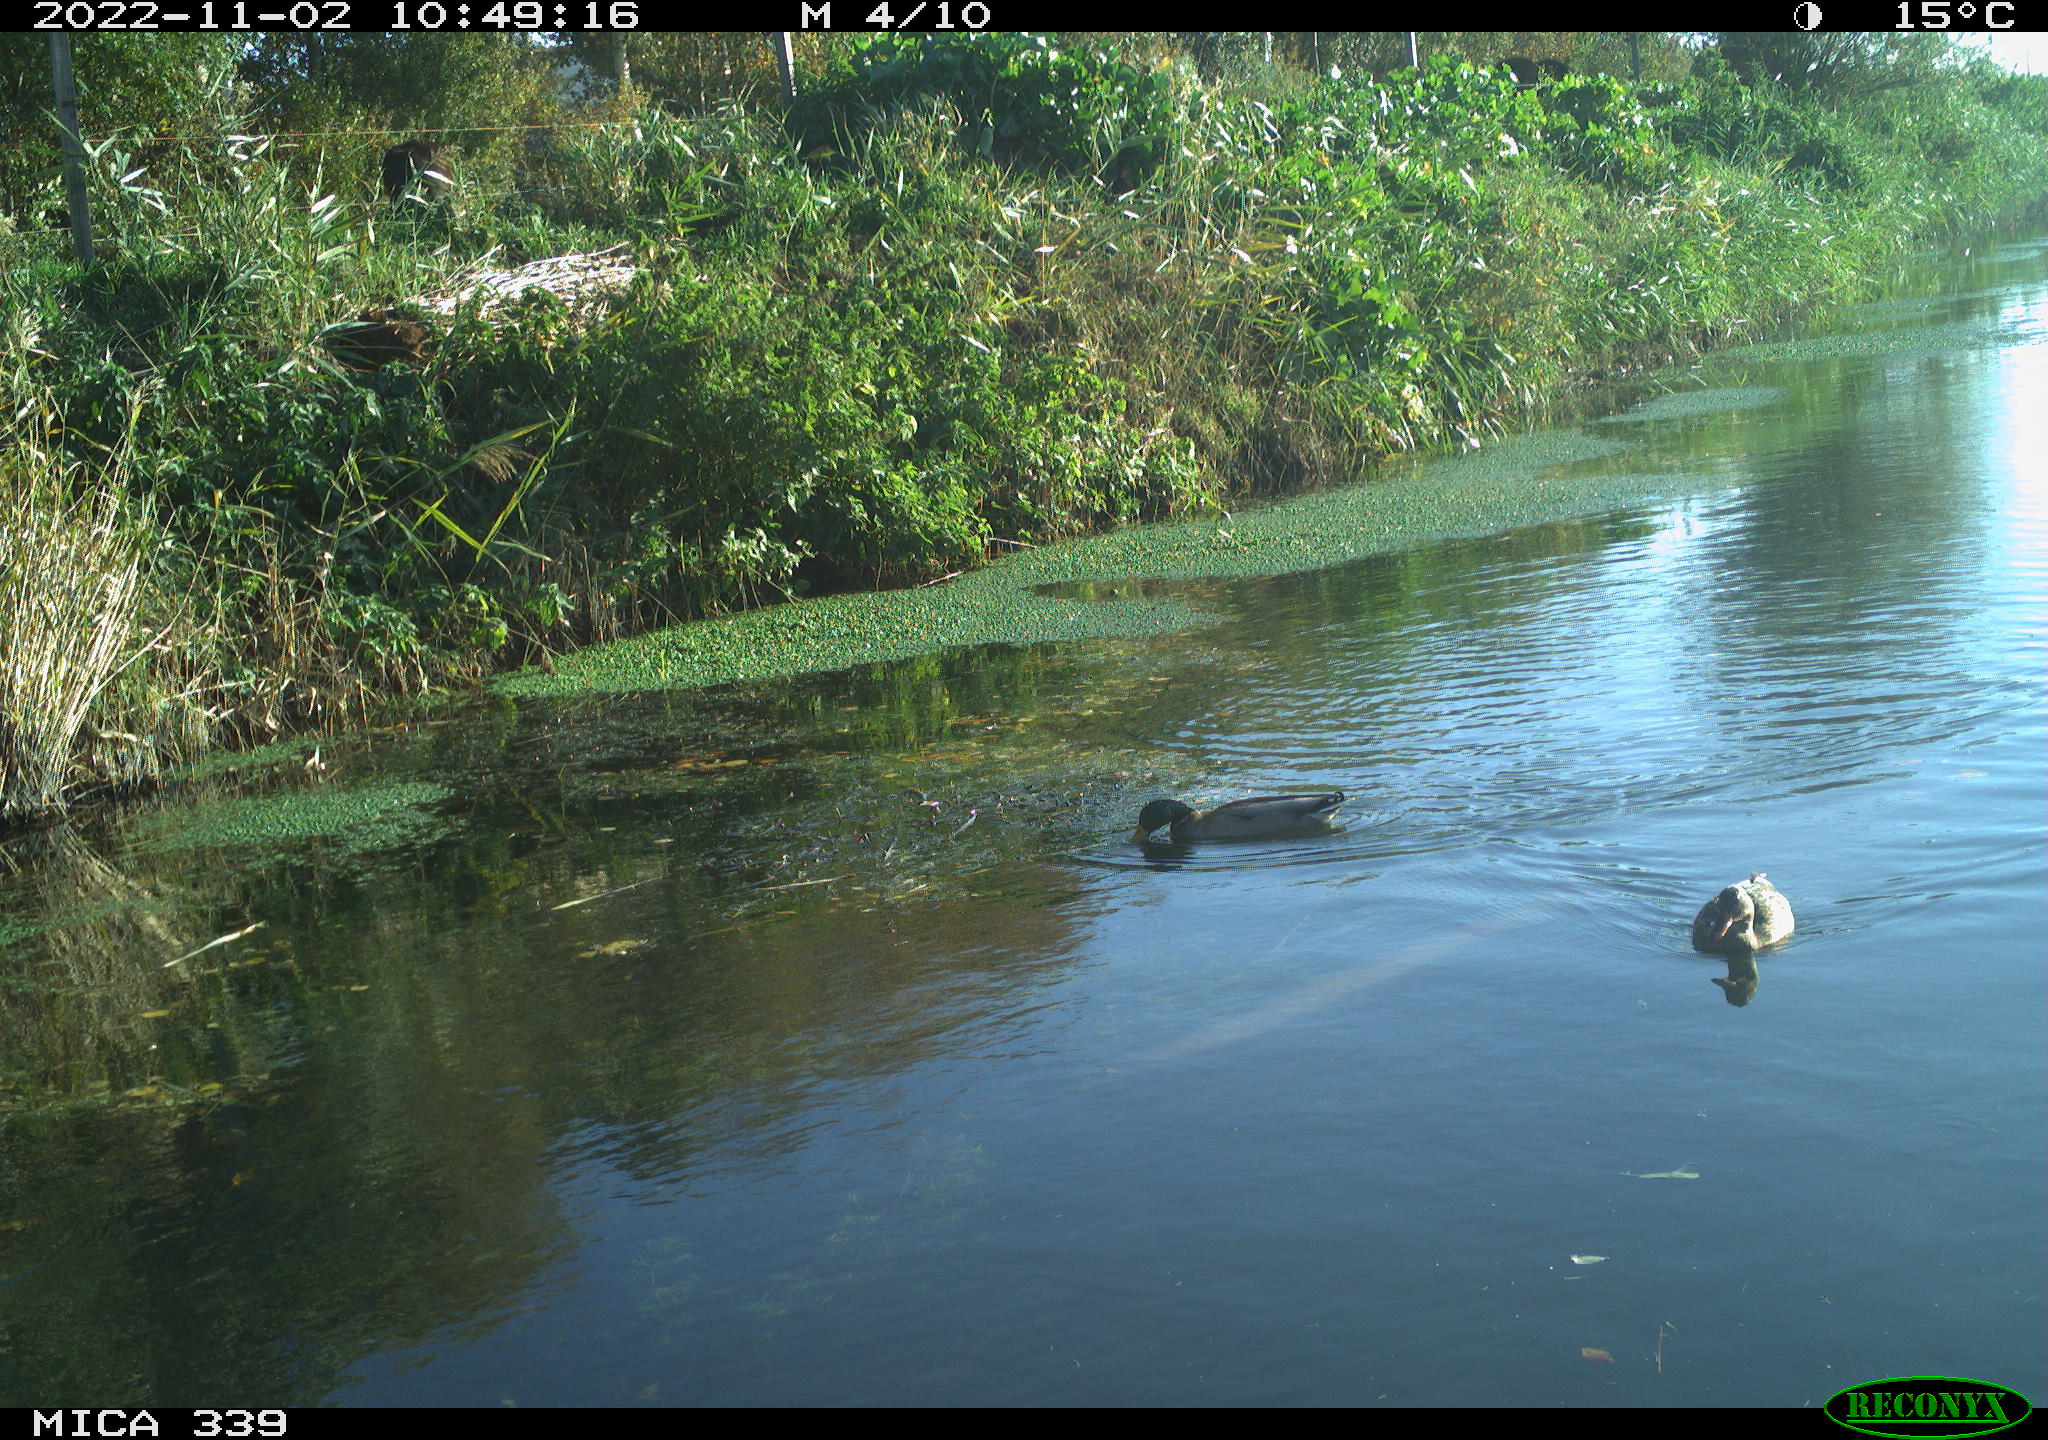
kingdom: Animalia
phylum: Chordata
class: Aves
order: Anseriformes
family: Anatidae
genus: Anas
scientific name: Anas platyrhynchos
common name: Mallard
